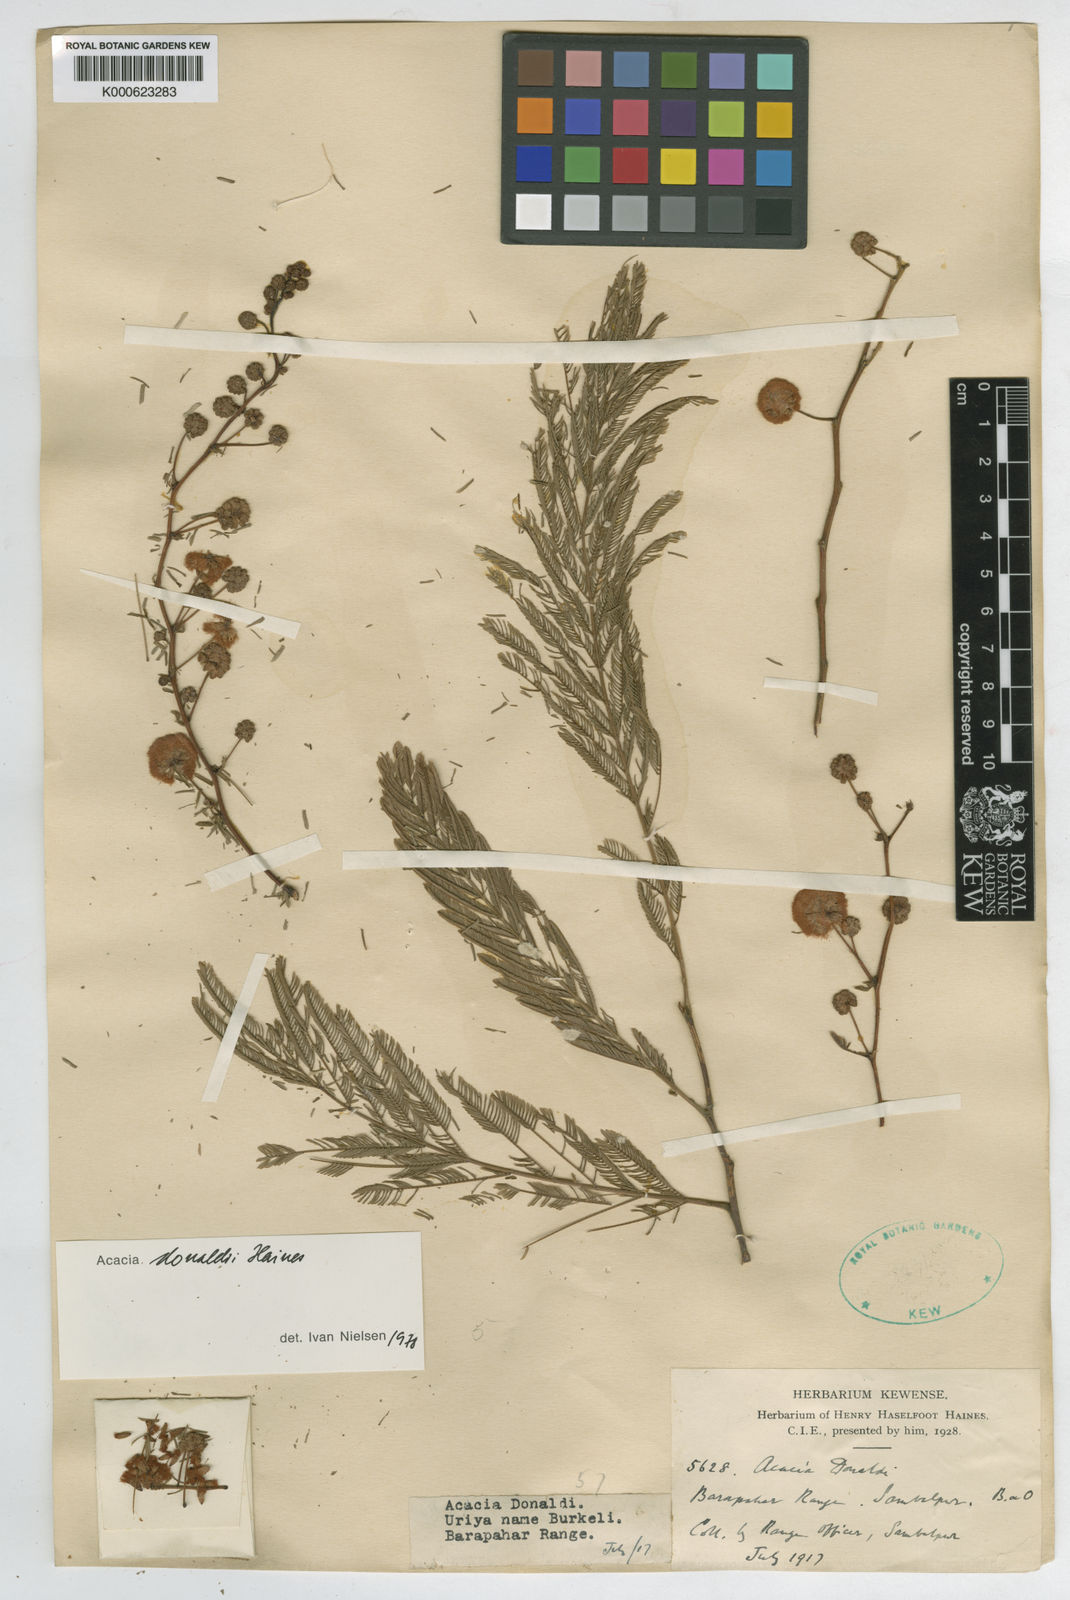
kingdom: Plantae
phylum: Tracheophyta
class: Magnoliopsida
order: Fabales
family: Fabaceae
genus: Senegalia
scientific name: Senegalia donaldi
